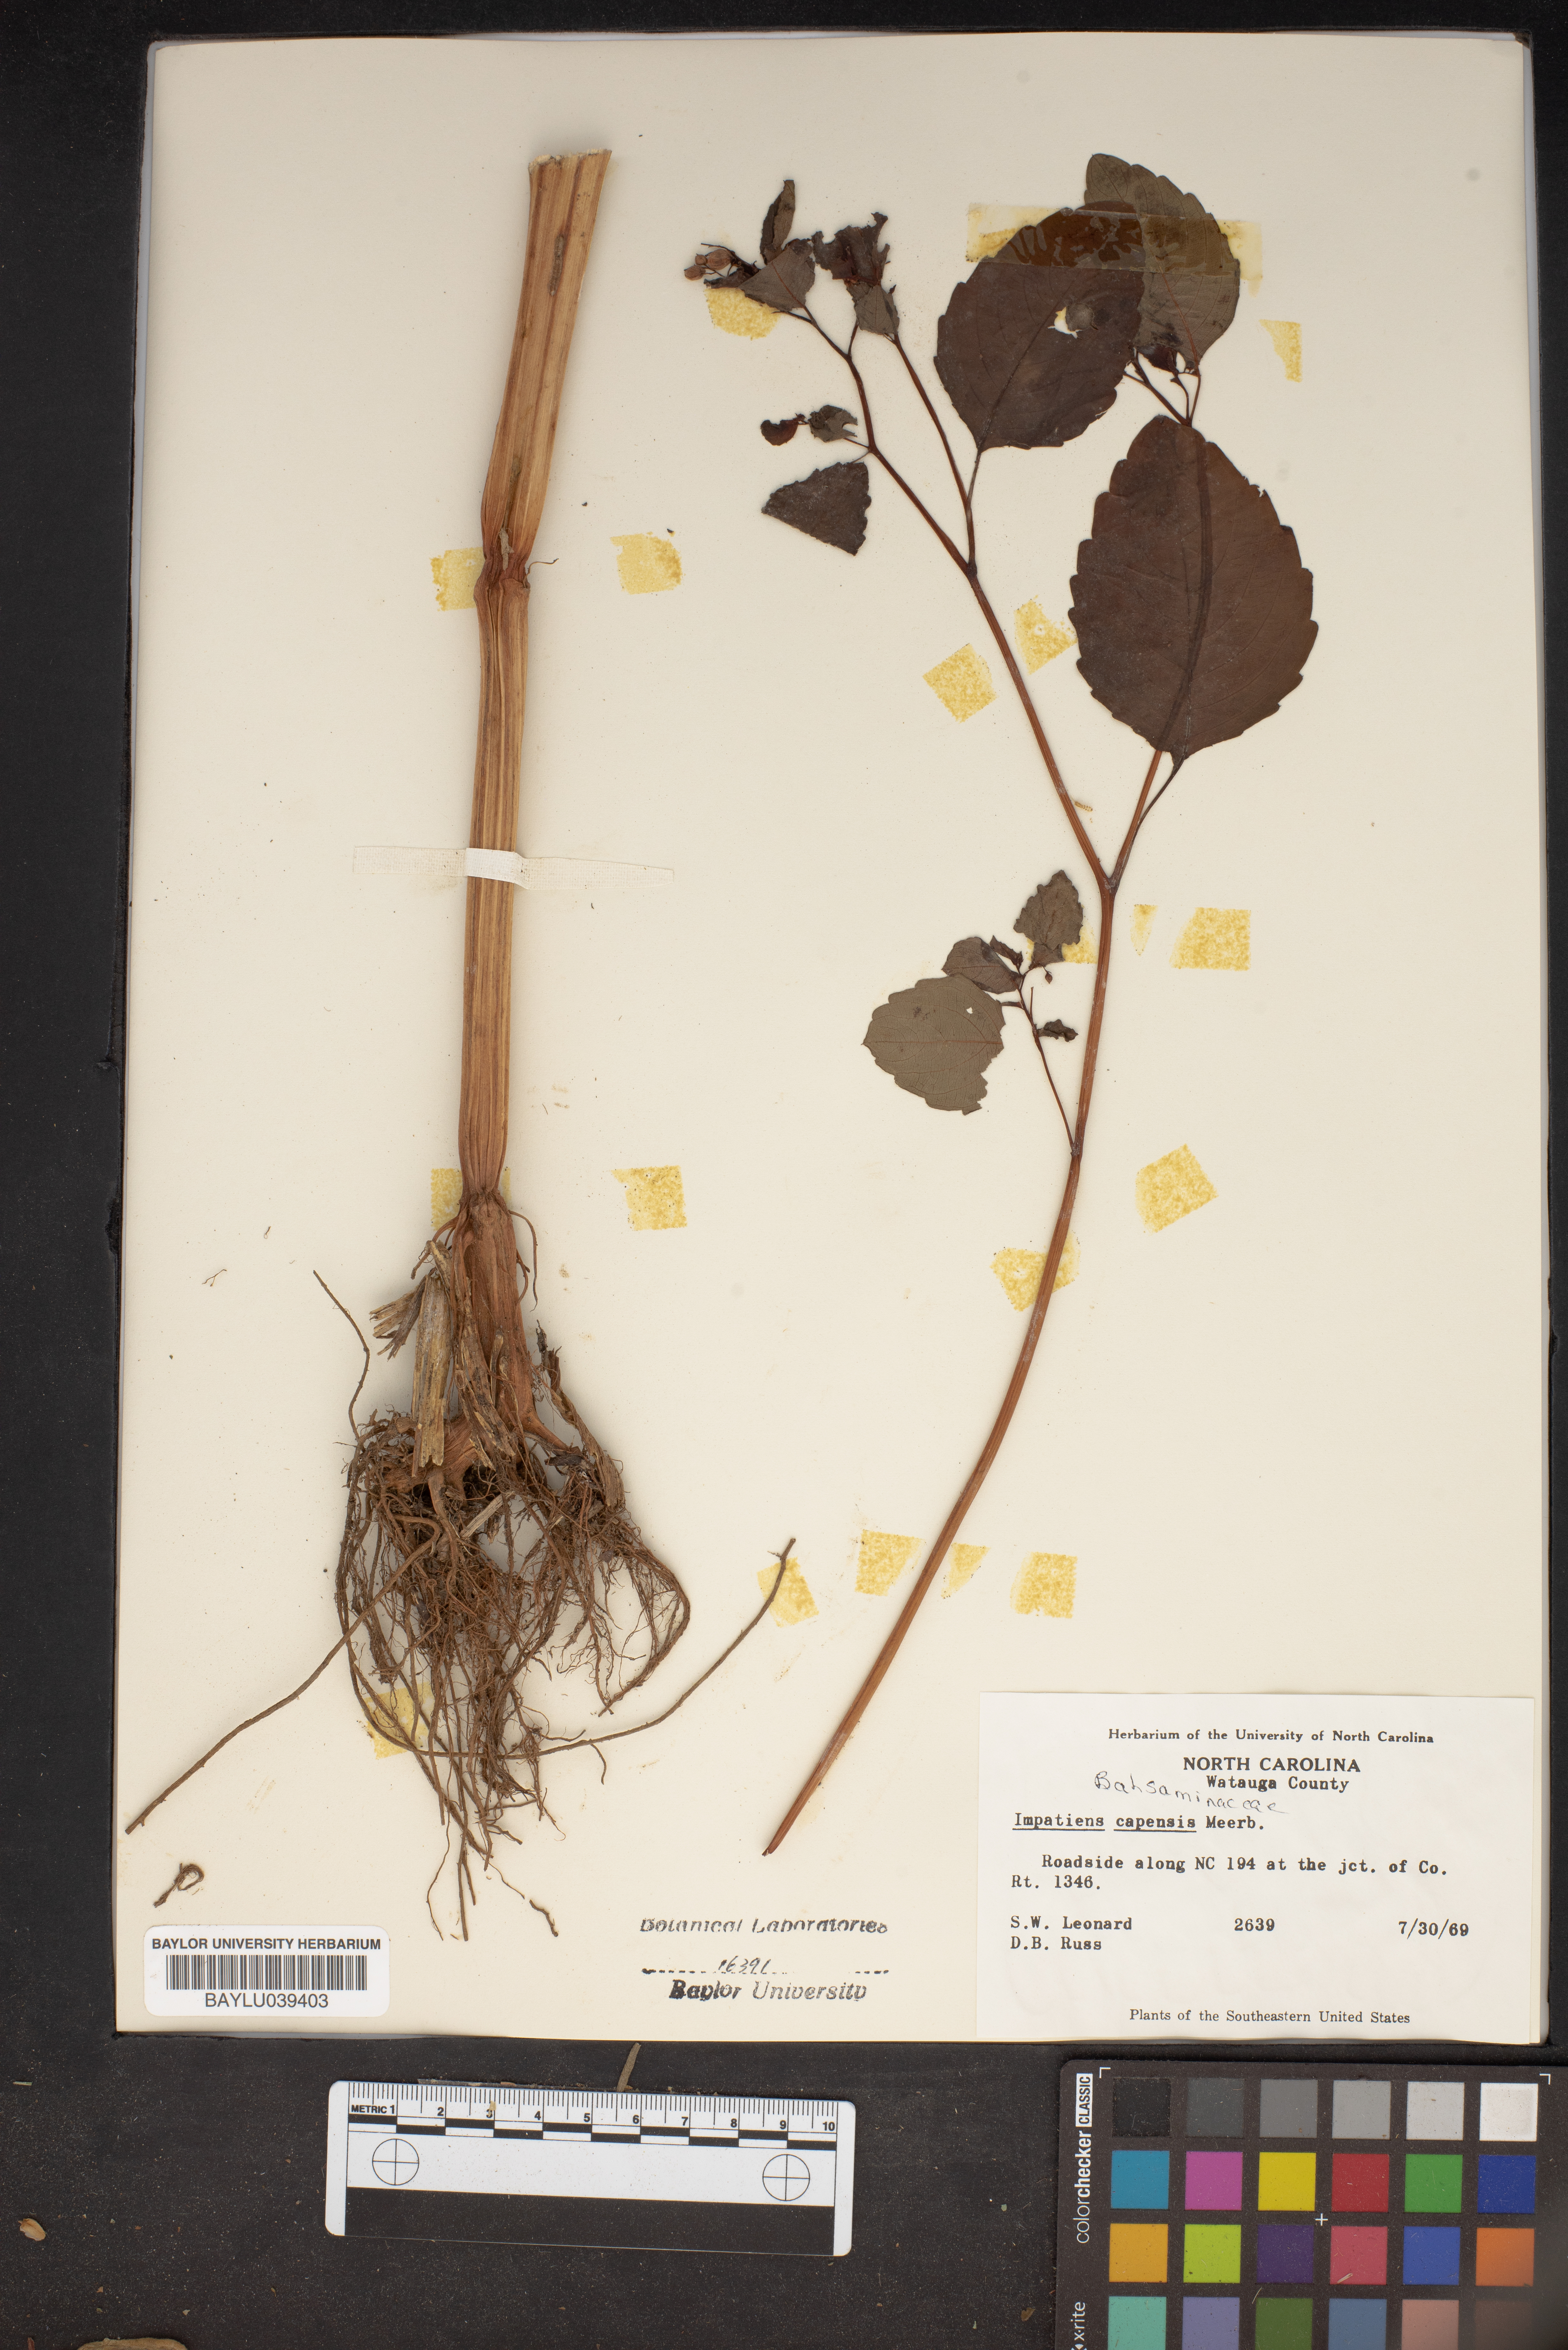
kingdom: Plantae
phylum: Tracheophyta
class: Magnoliopsida
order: Ericales
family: Balsaminaceae
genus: Impatiens
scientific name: Impatiens capensis
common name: Orange balsam
